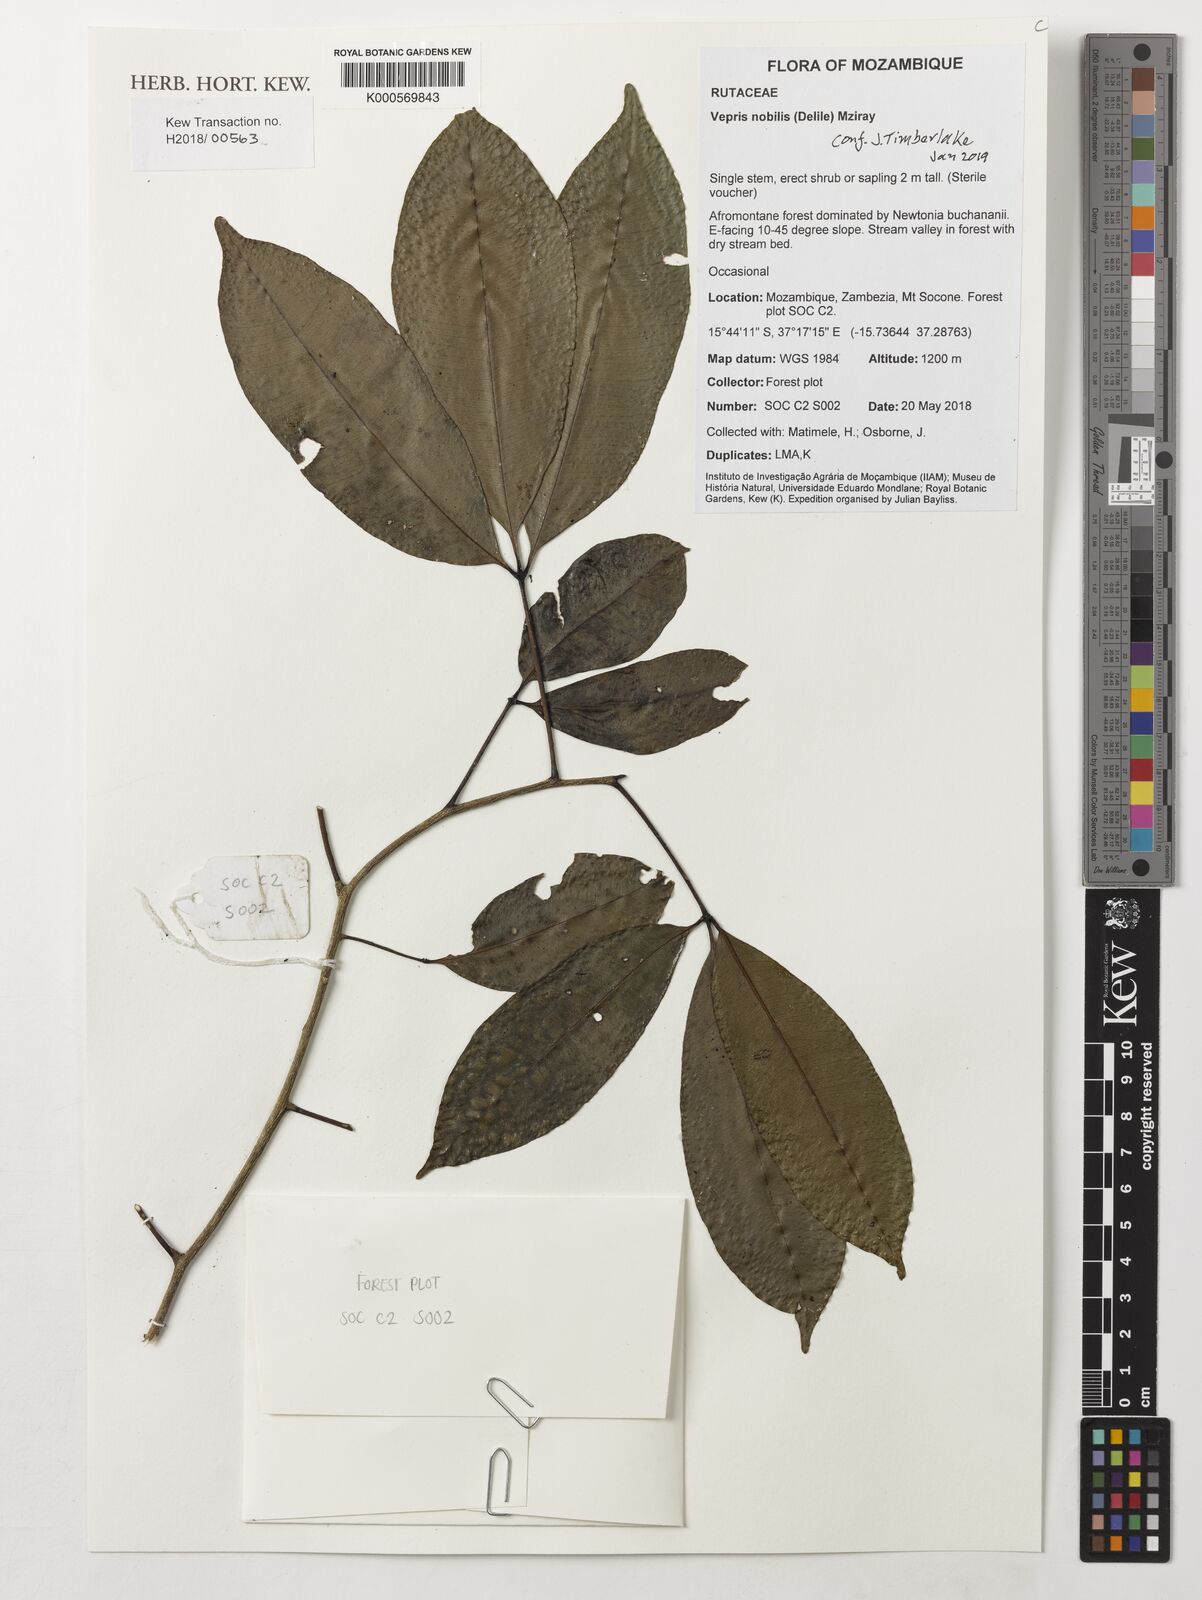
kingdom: Plantae
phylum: Tracheophyta
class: Magnoliopsida
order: Sapindales
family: Rutaceae
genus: Vepris
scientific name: Vepris nobilis
